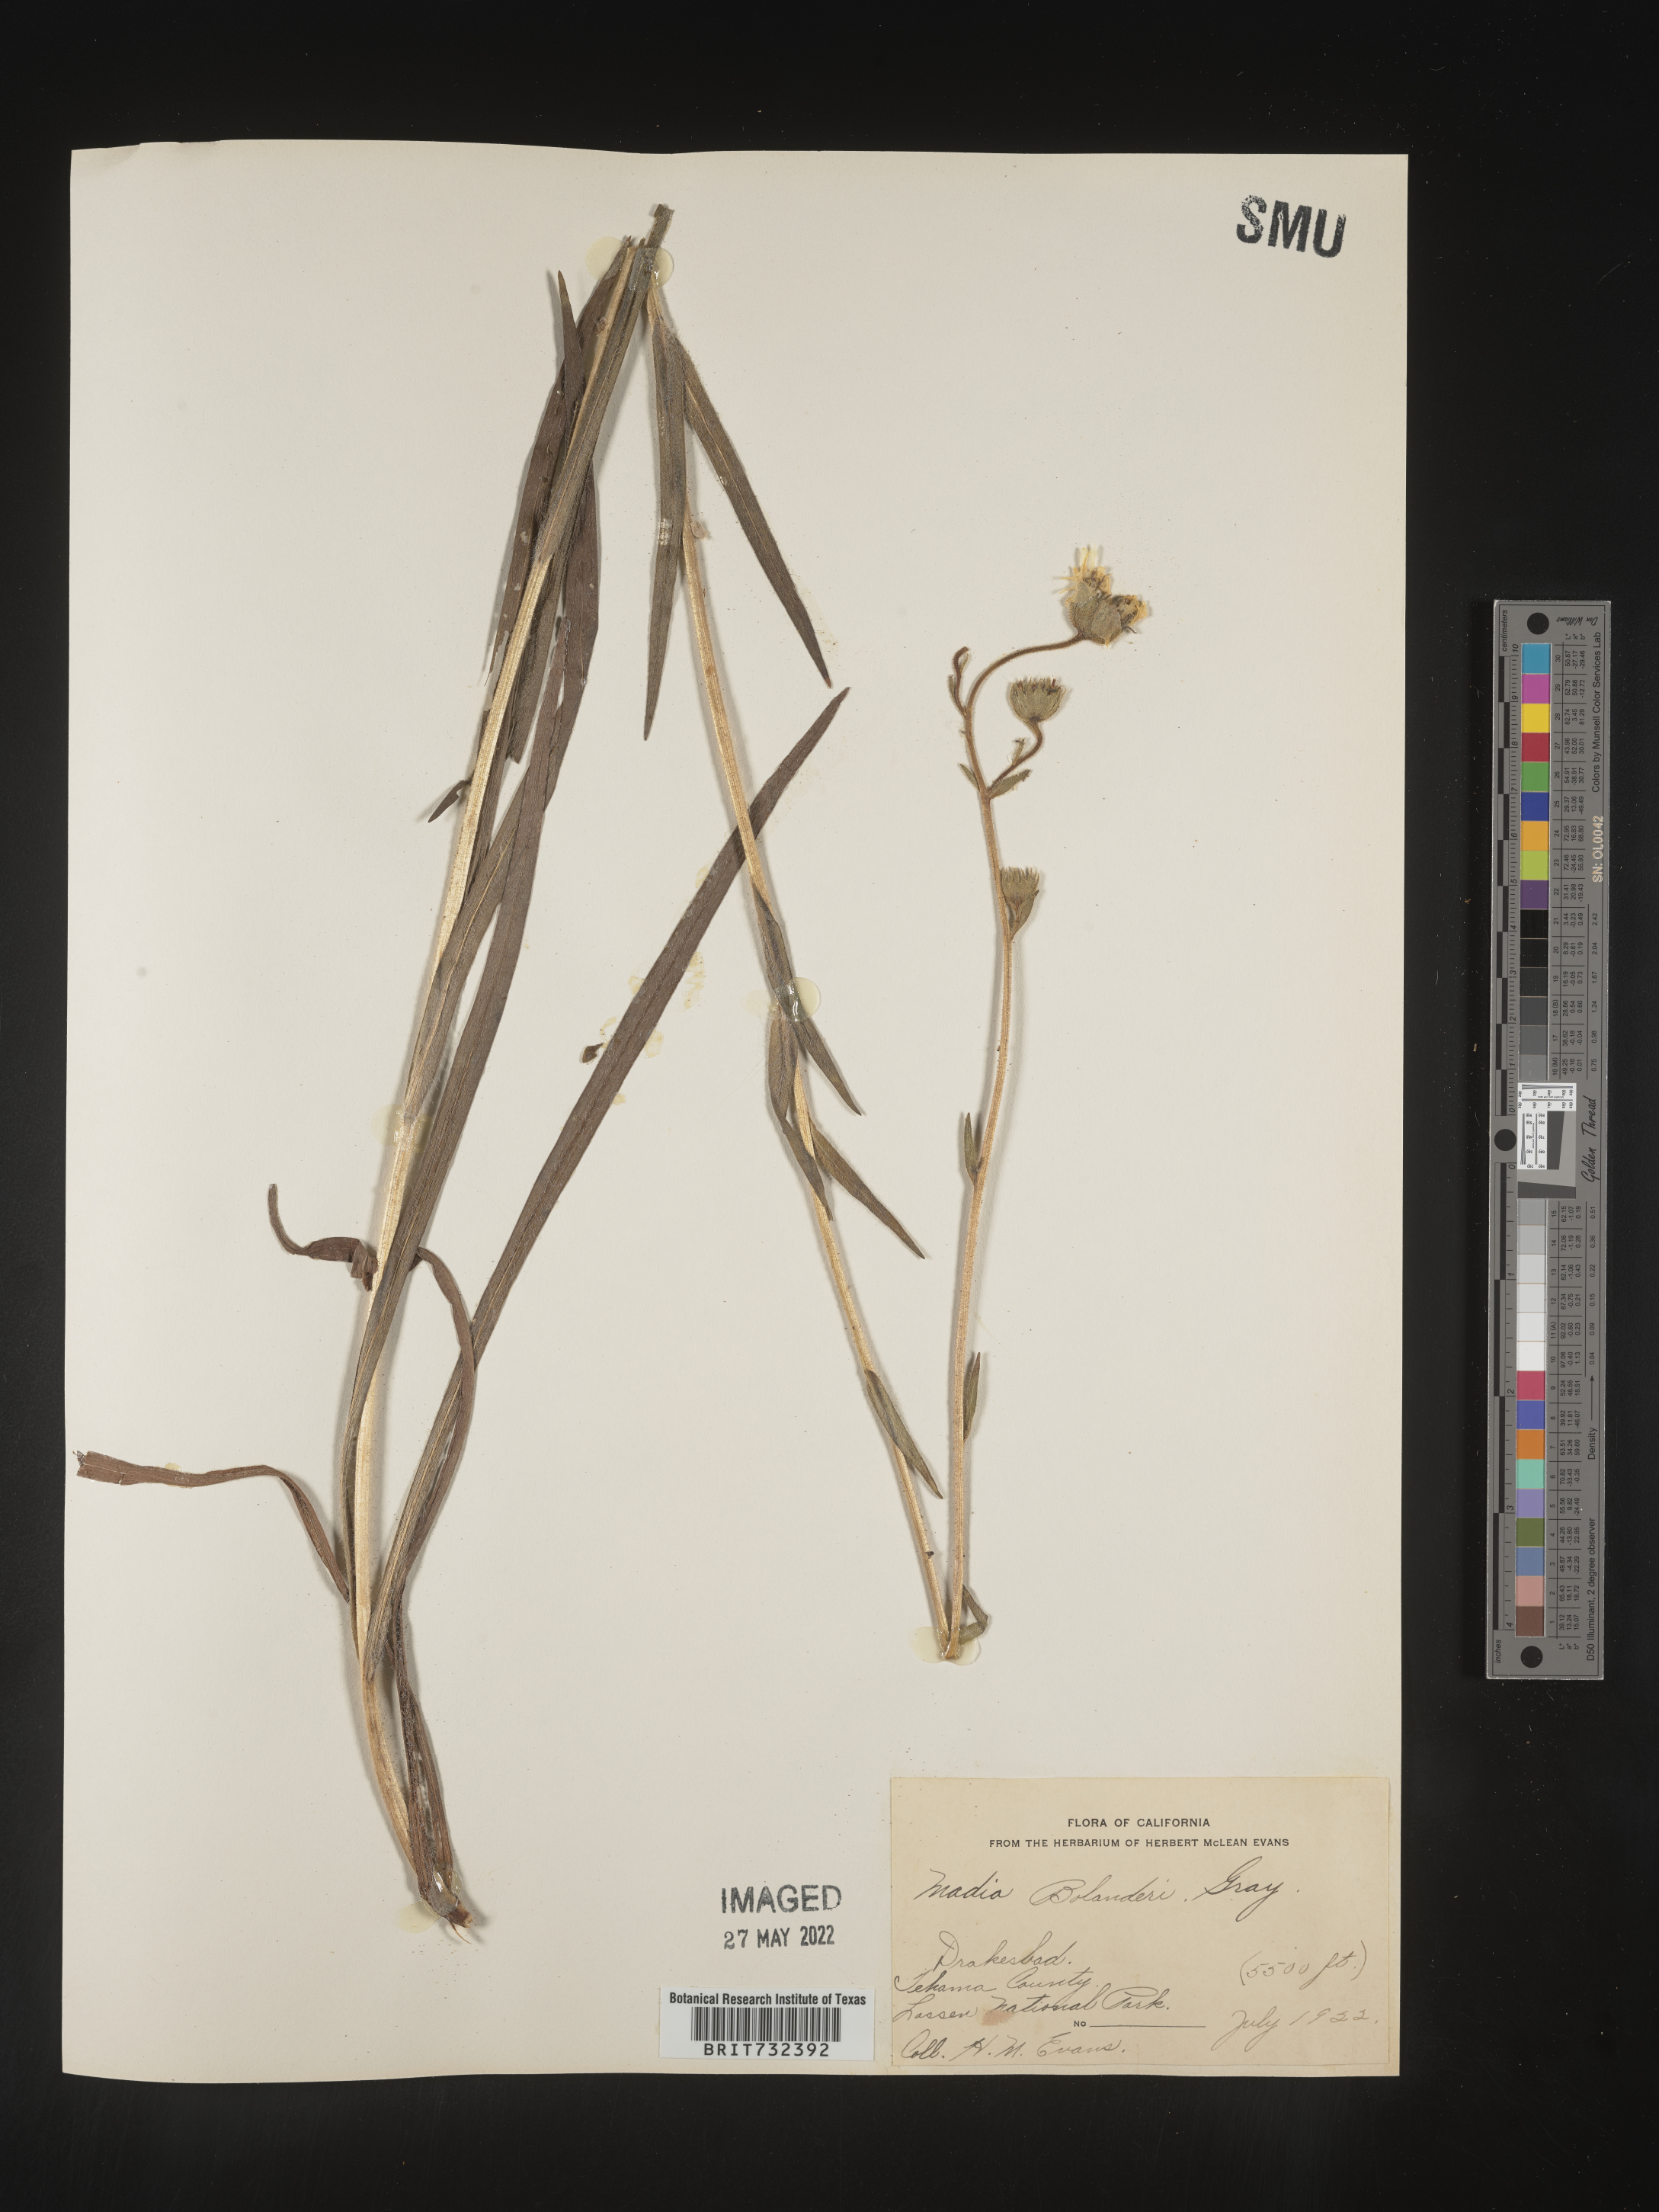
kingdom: Plantae
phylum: Tracheophyta
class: Magnoliopsida
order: Asterales
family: Asteraceae
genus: Kyhosia
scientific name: Kyhosia bolanderi
